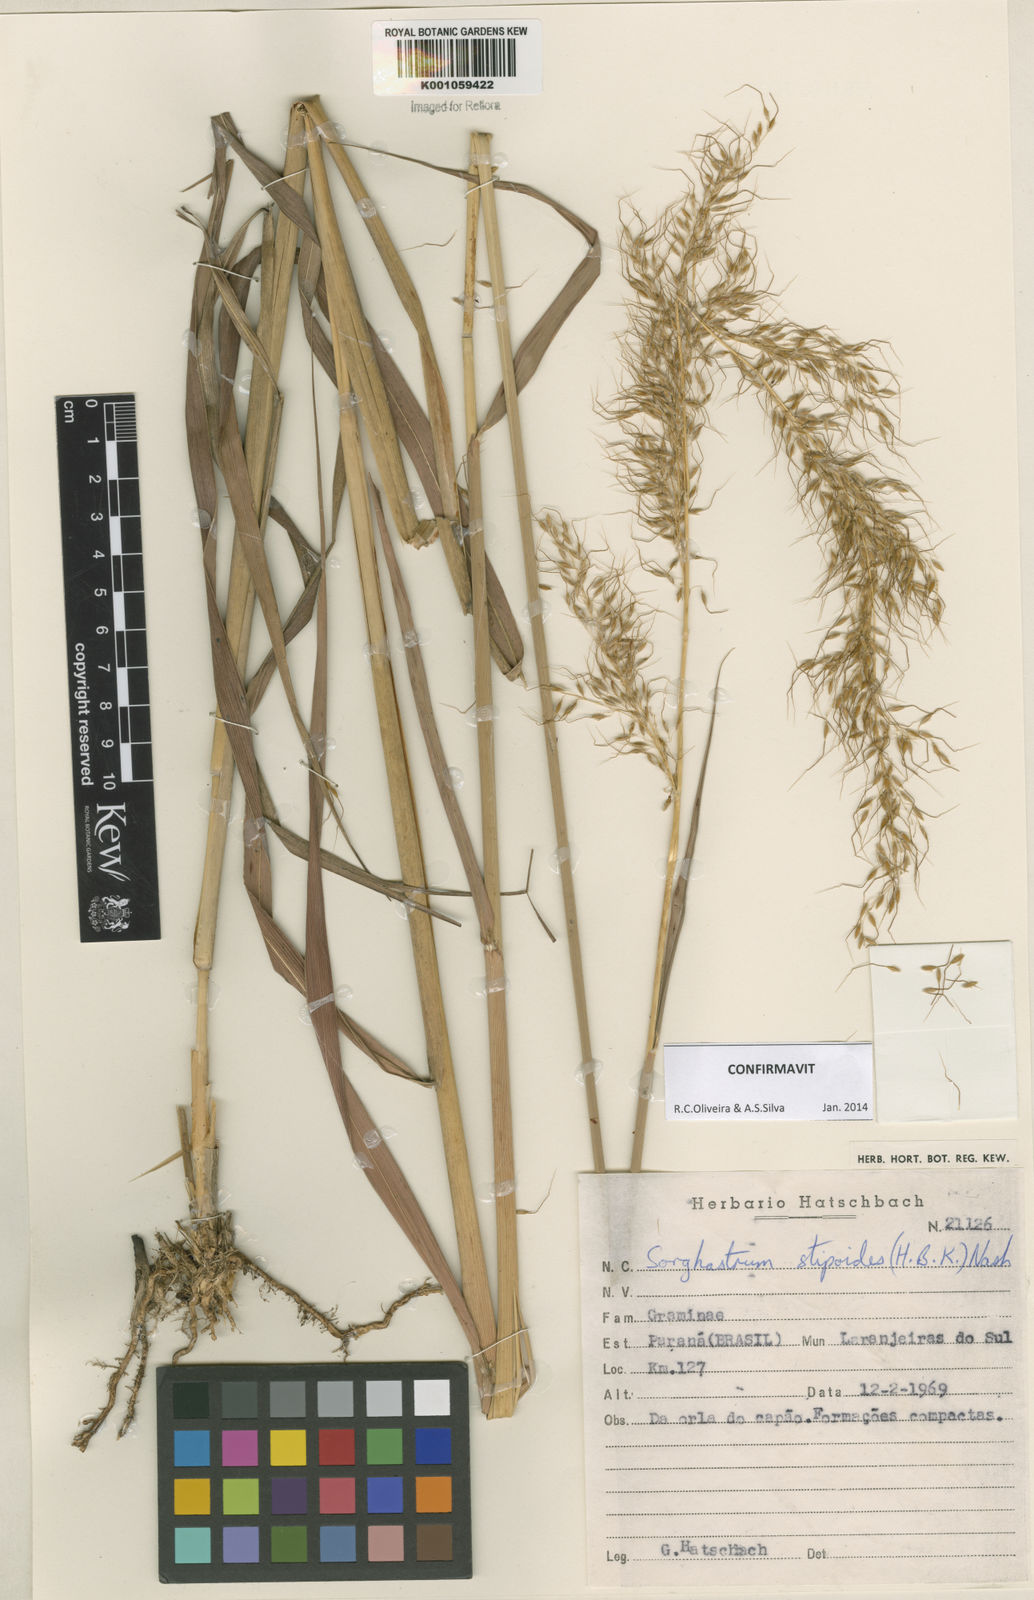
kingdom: Plantae
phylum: Tracheophyta
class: Liliopsida
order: Poales
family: Poaceae
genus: Sorghastrum
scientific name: Sorghastrum stipoides
